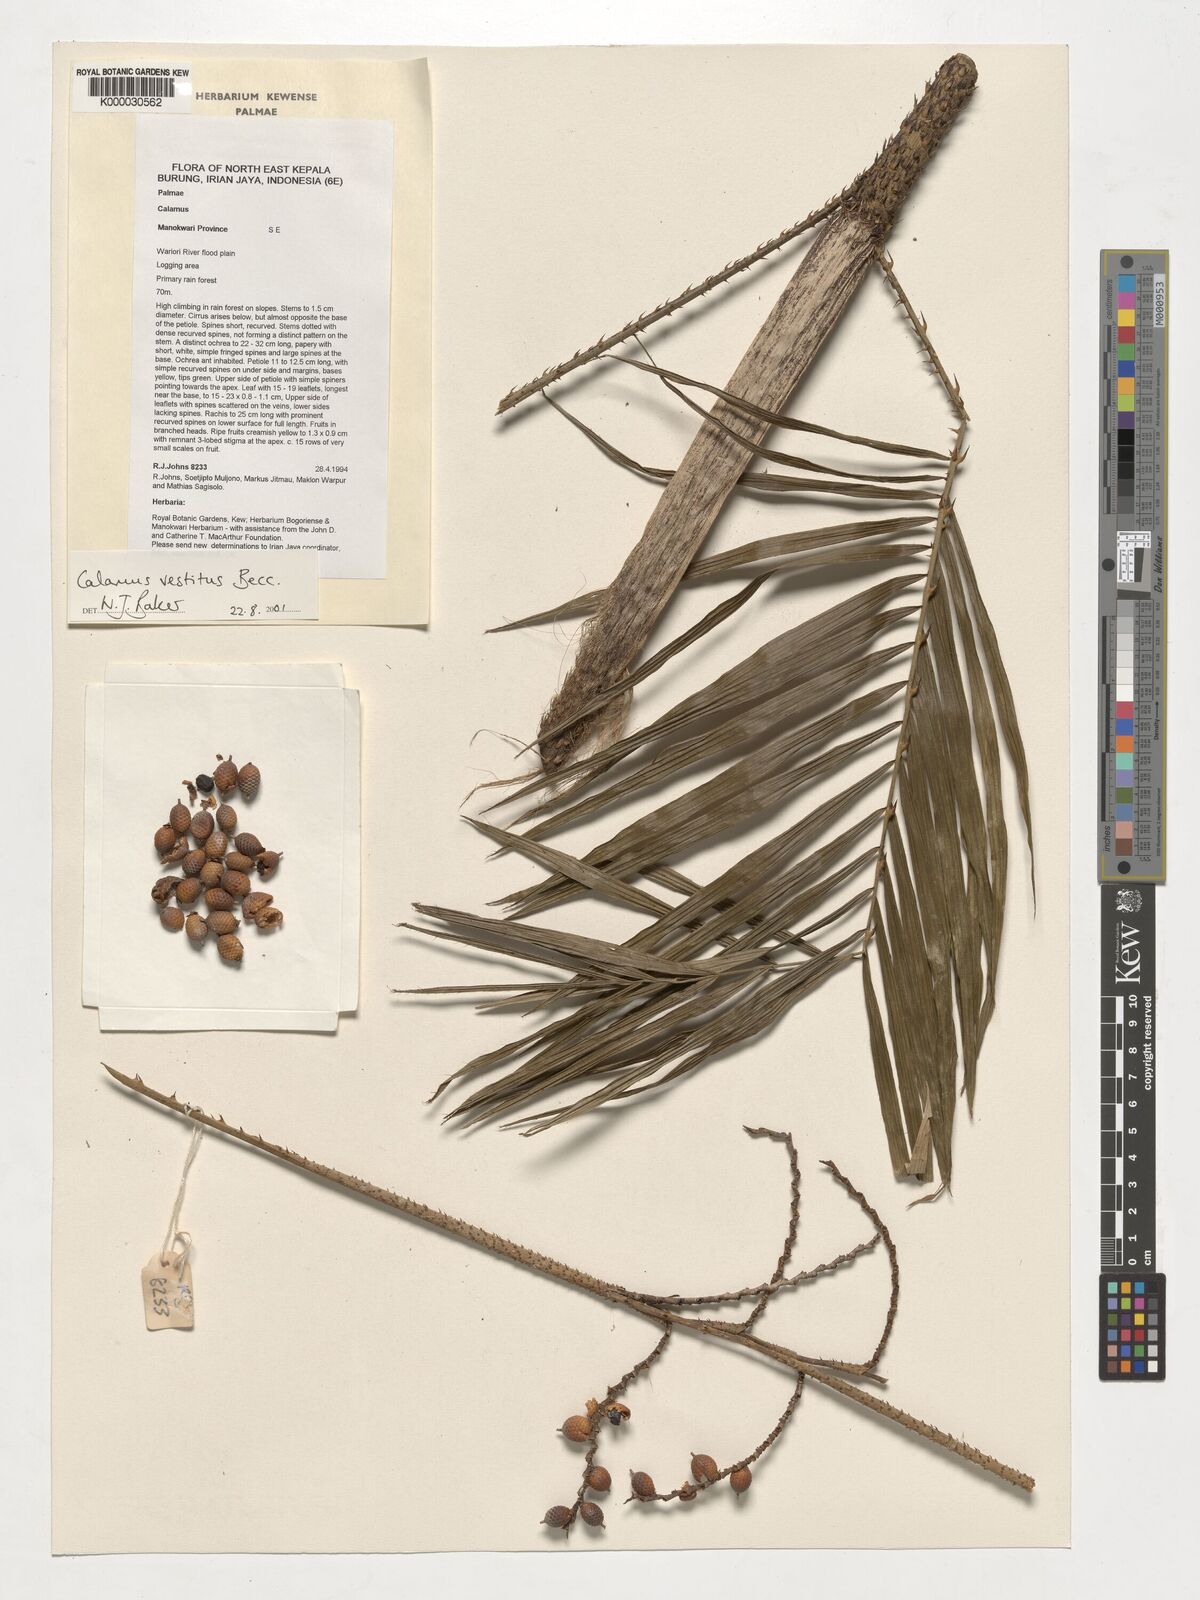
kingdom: Plantae
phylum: Tracheophyta
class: Liliopsida
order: Arecales
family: Arecaceae
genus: Calamus
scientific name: Calamus vestitus
